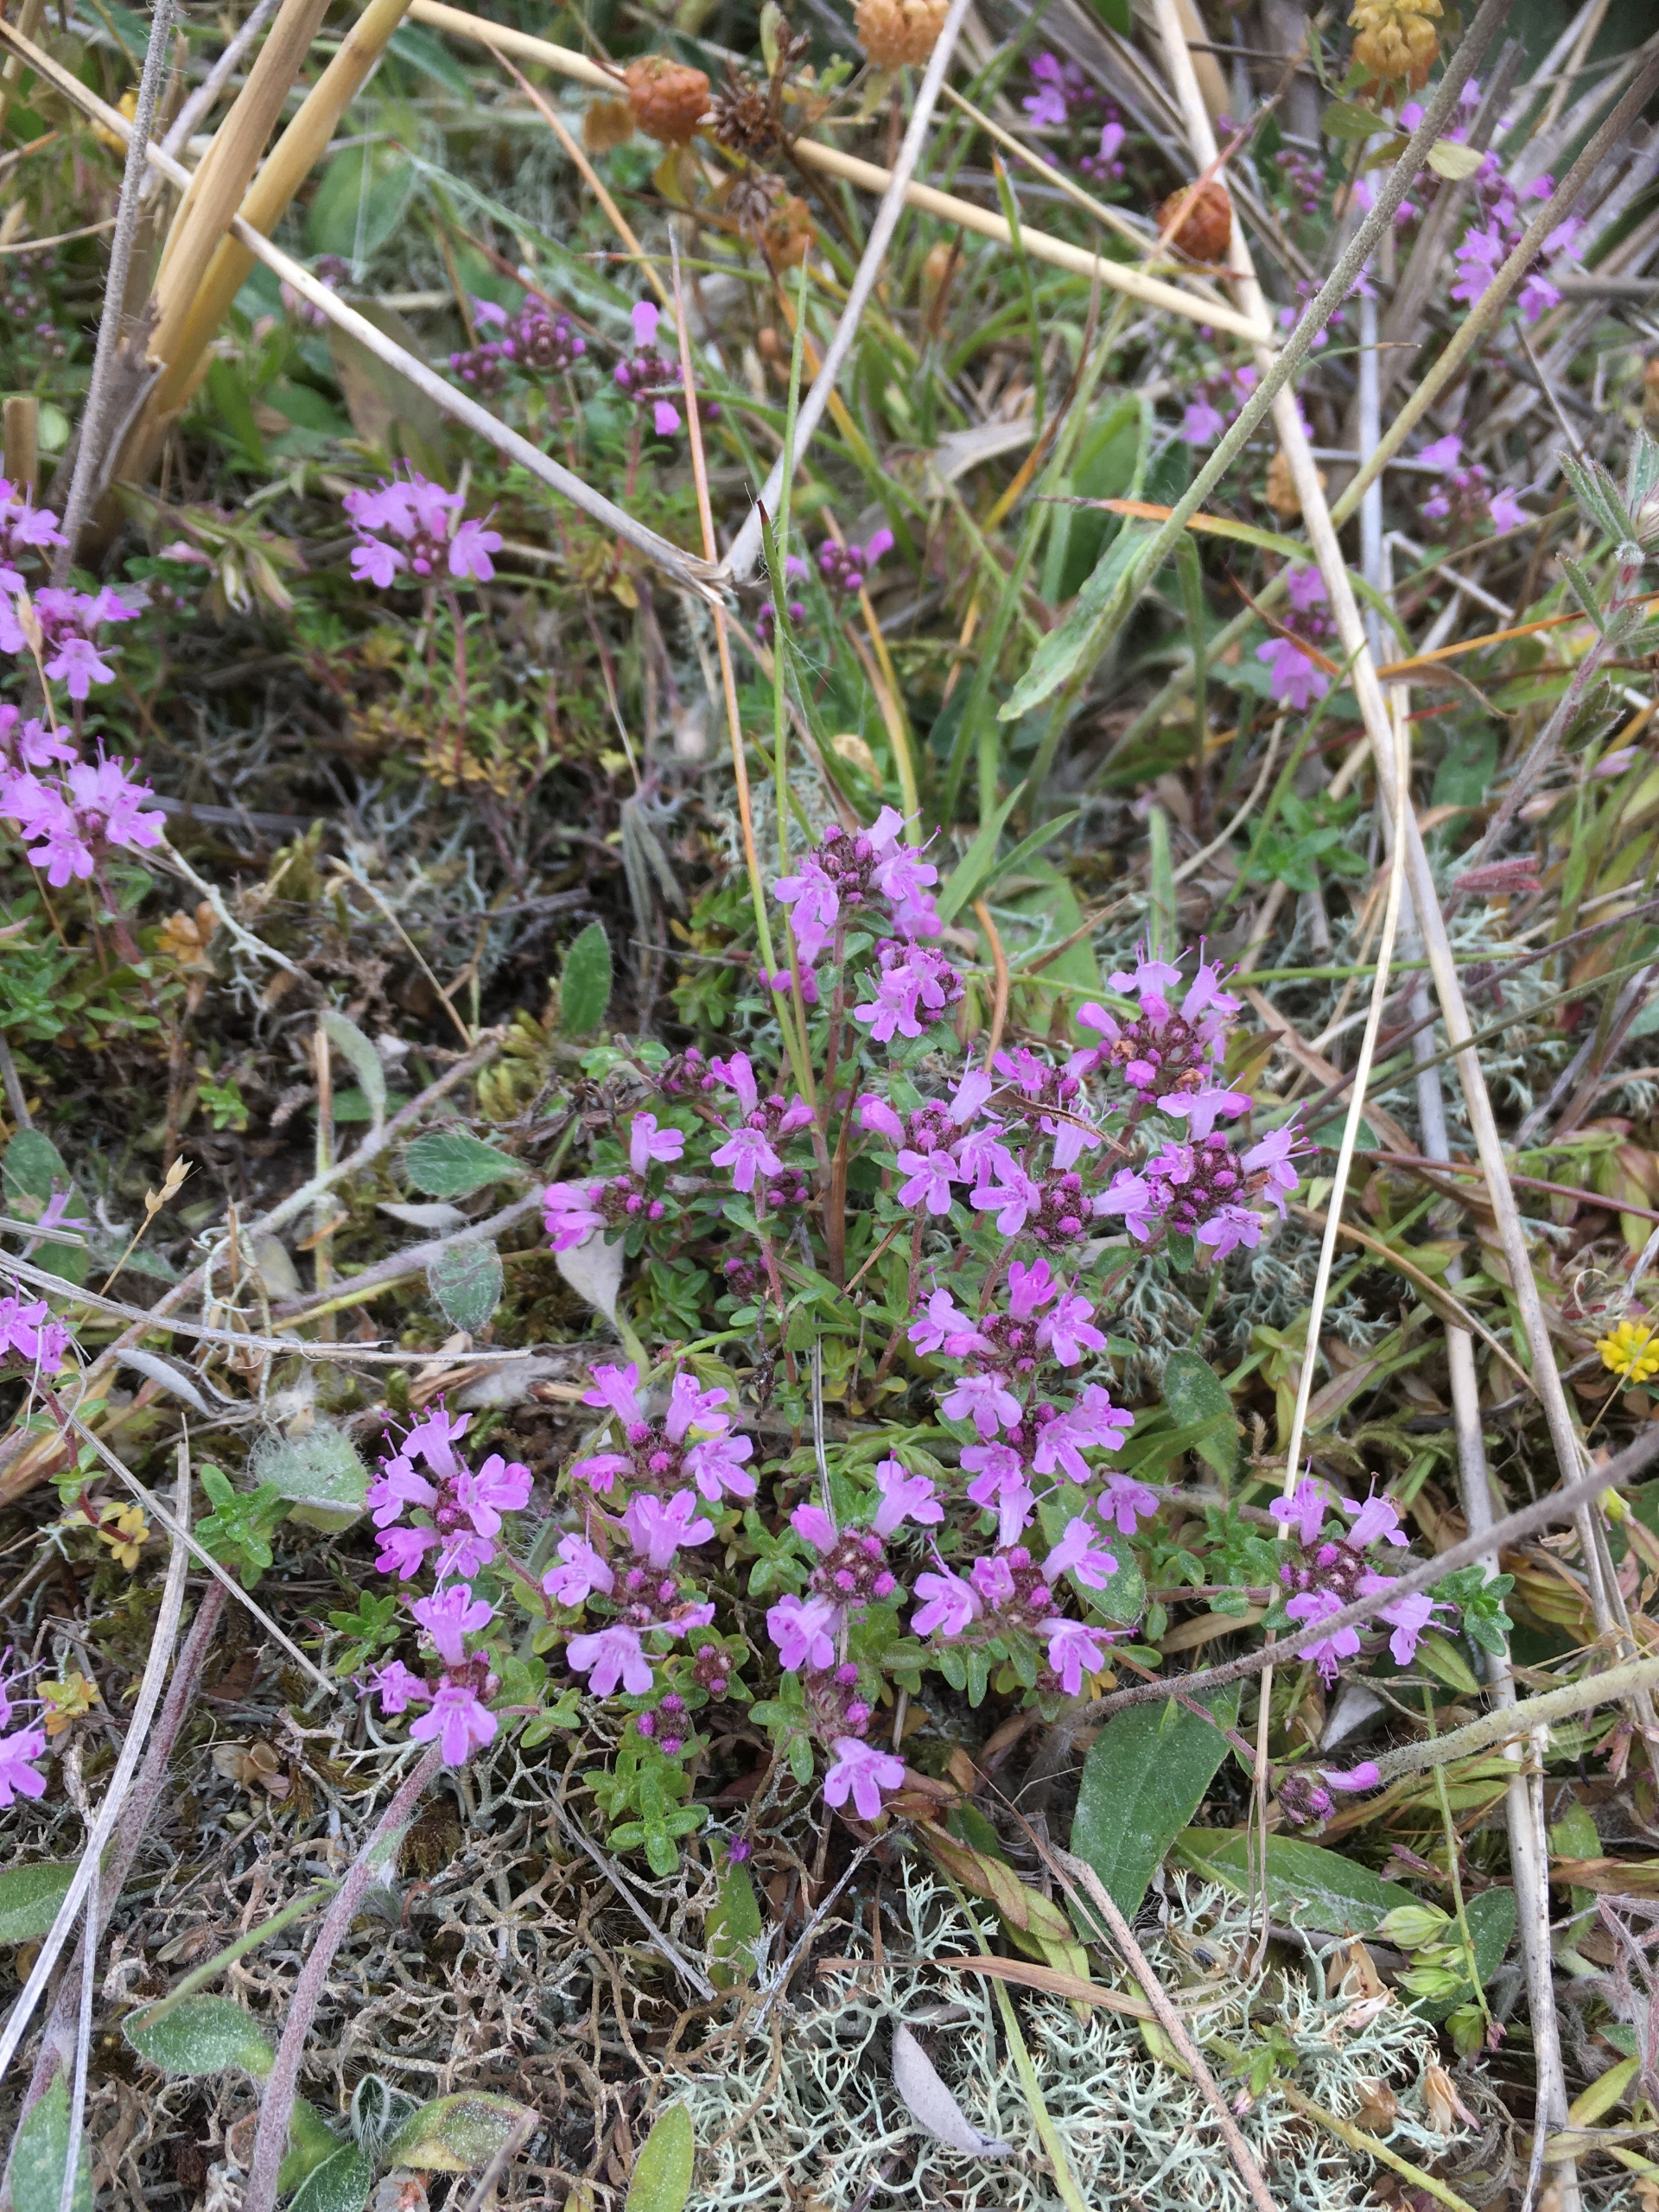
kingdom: Plantae
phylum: Tracheophyta
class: Magnoliopsida
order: Lamiales
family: Lamiaceae
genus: Thymus
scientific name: Thymus serpyllum
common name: Smalbladet timian
